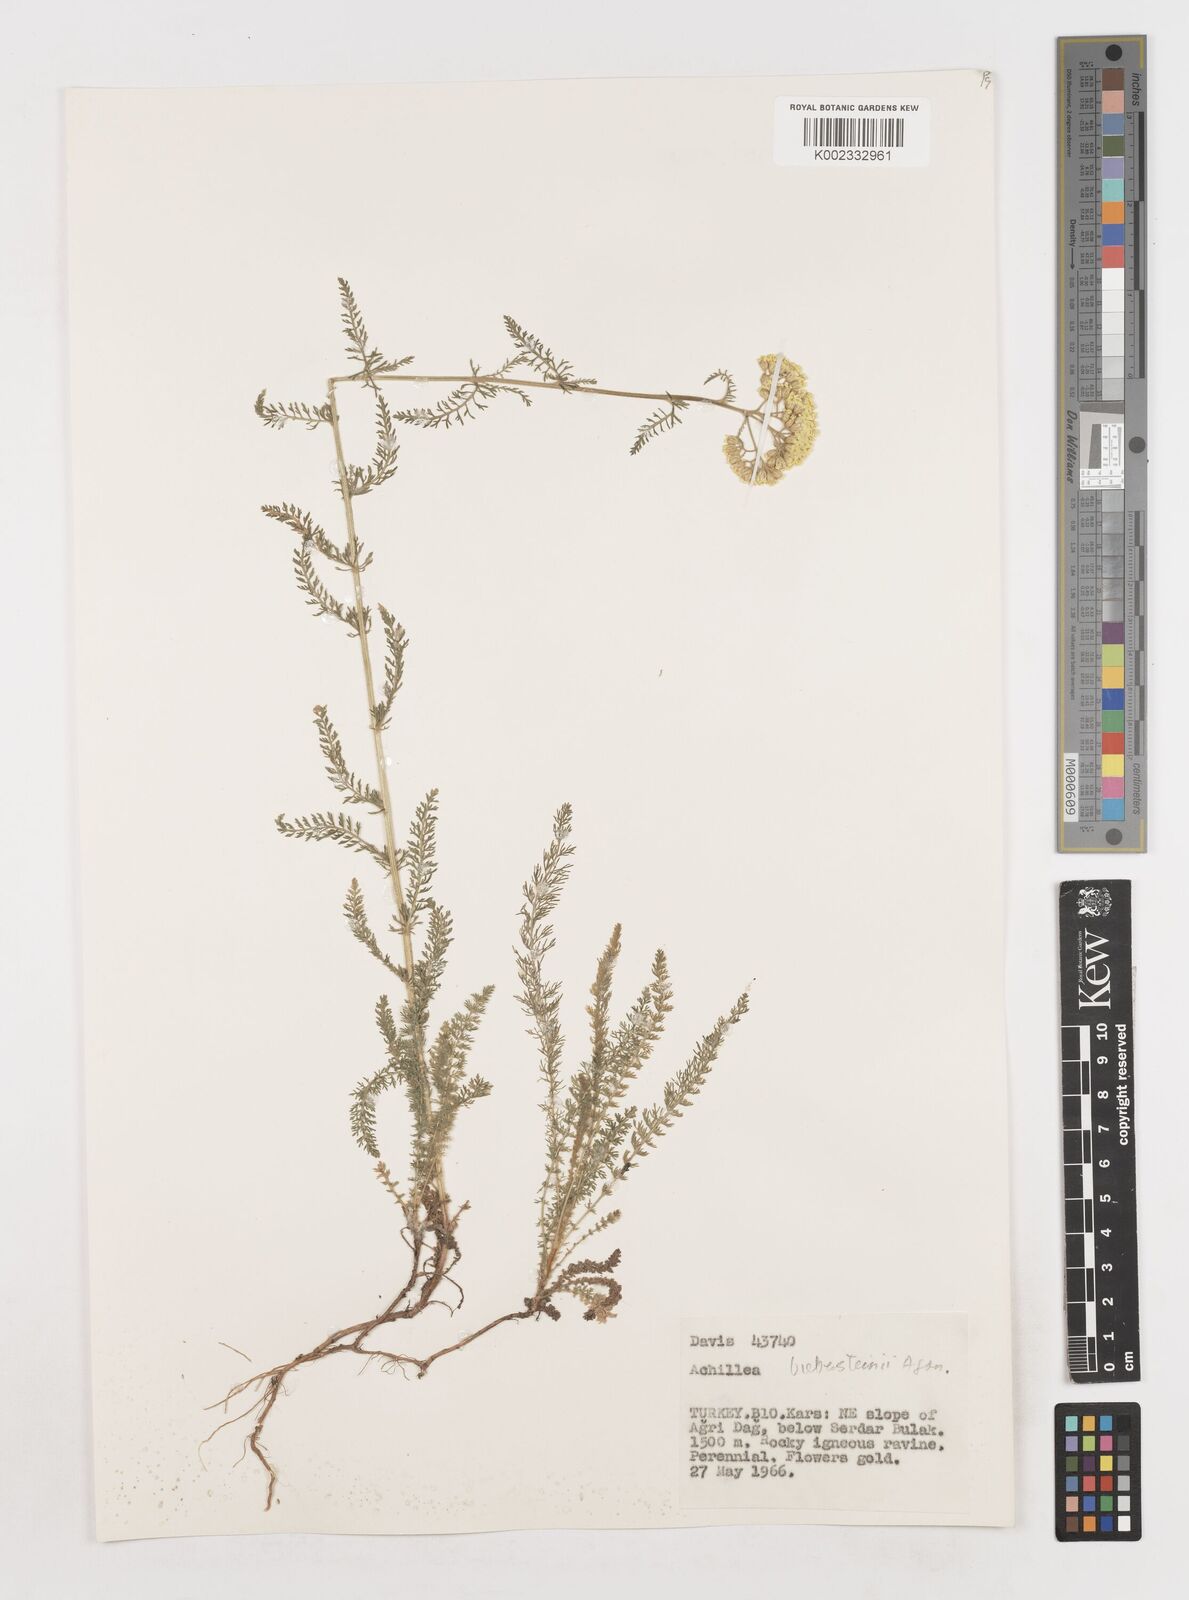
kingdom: Plantae
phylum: Tracheophyta
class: Magnoliopsida
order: Asterales
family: Asteraceae
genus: Achillea
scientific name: Achillea arabica
